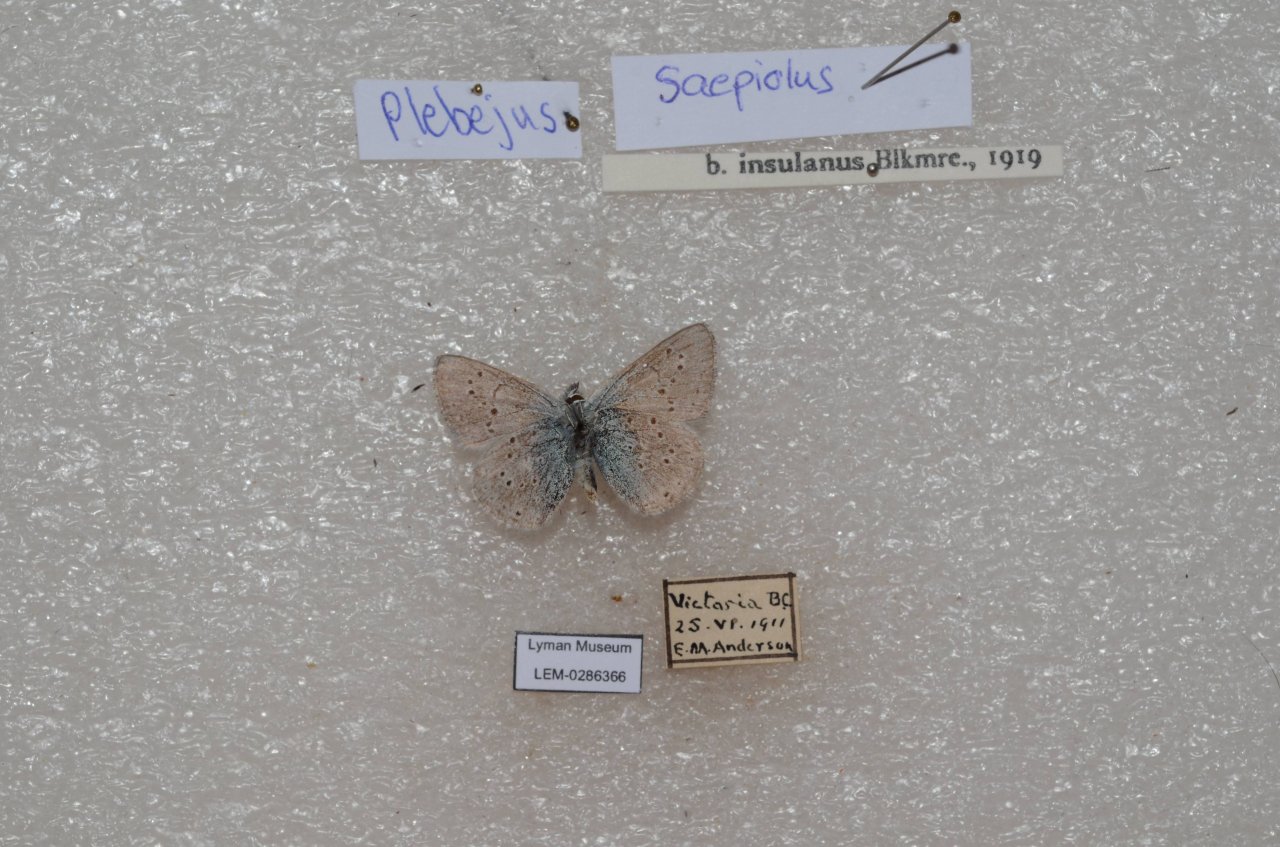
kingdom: Animalia
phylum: Arthropoda
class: Insecta
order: Lepidoptera
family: Lycaenidae
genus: Plebejus
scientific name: Plebejus saepiolus
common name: Greenish Blue
